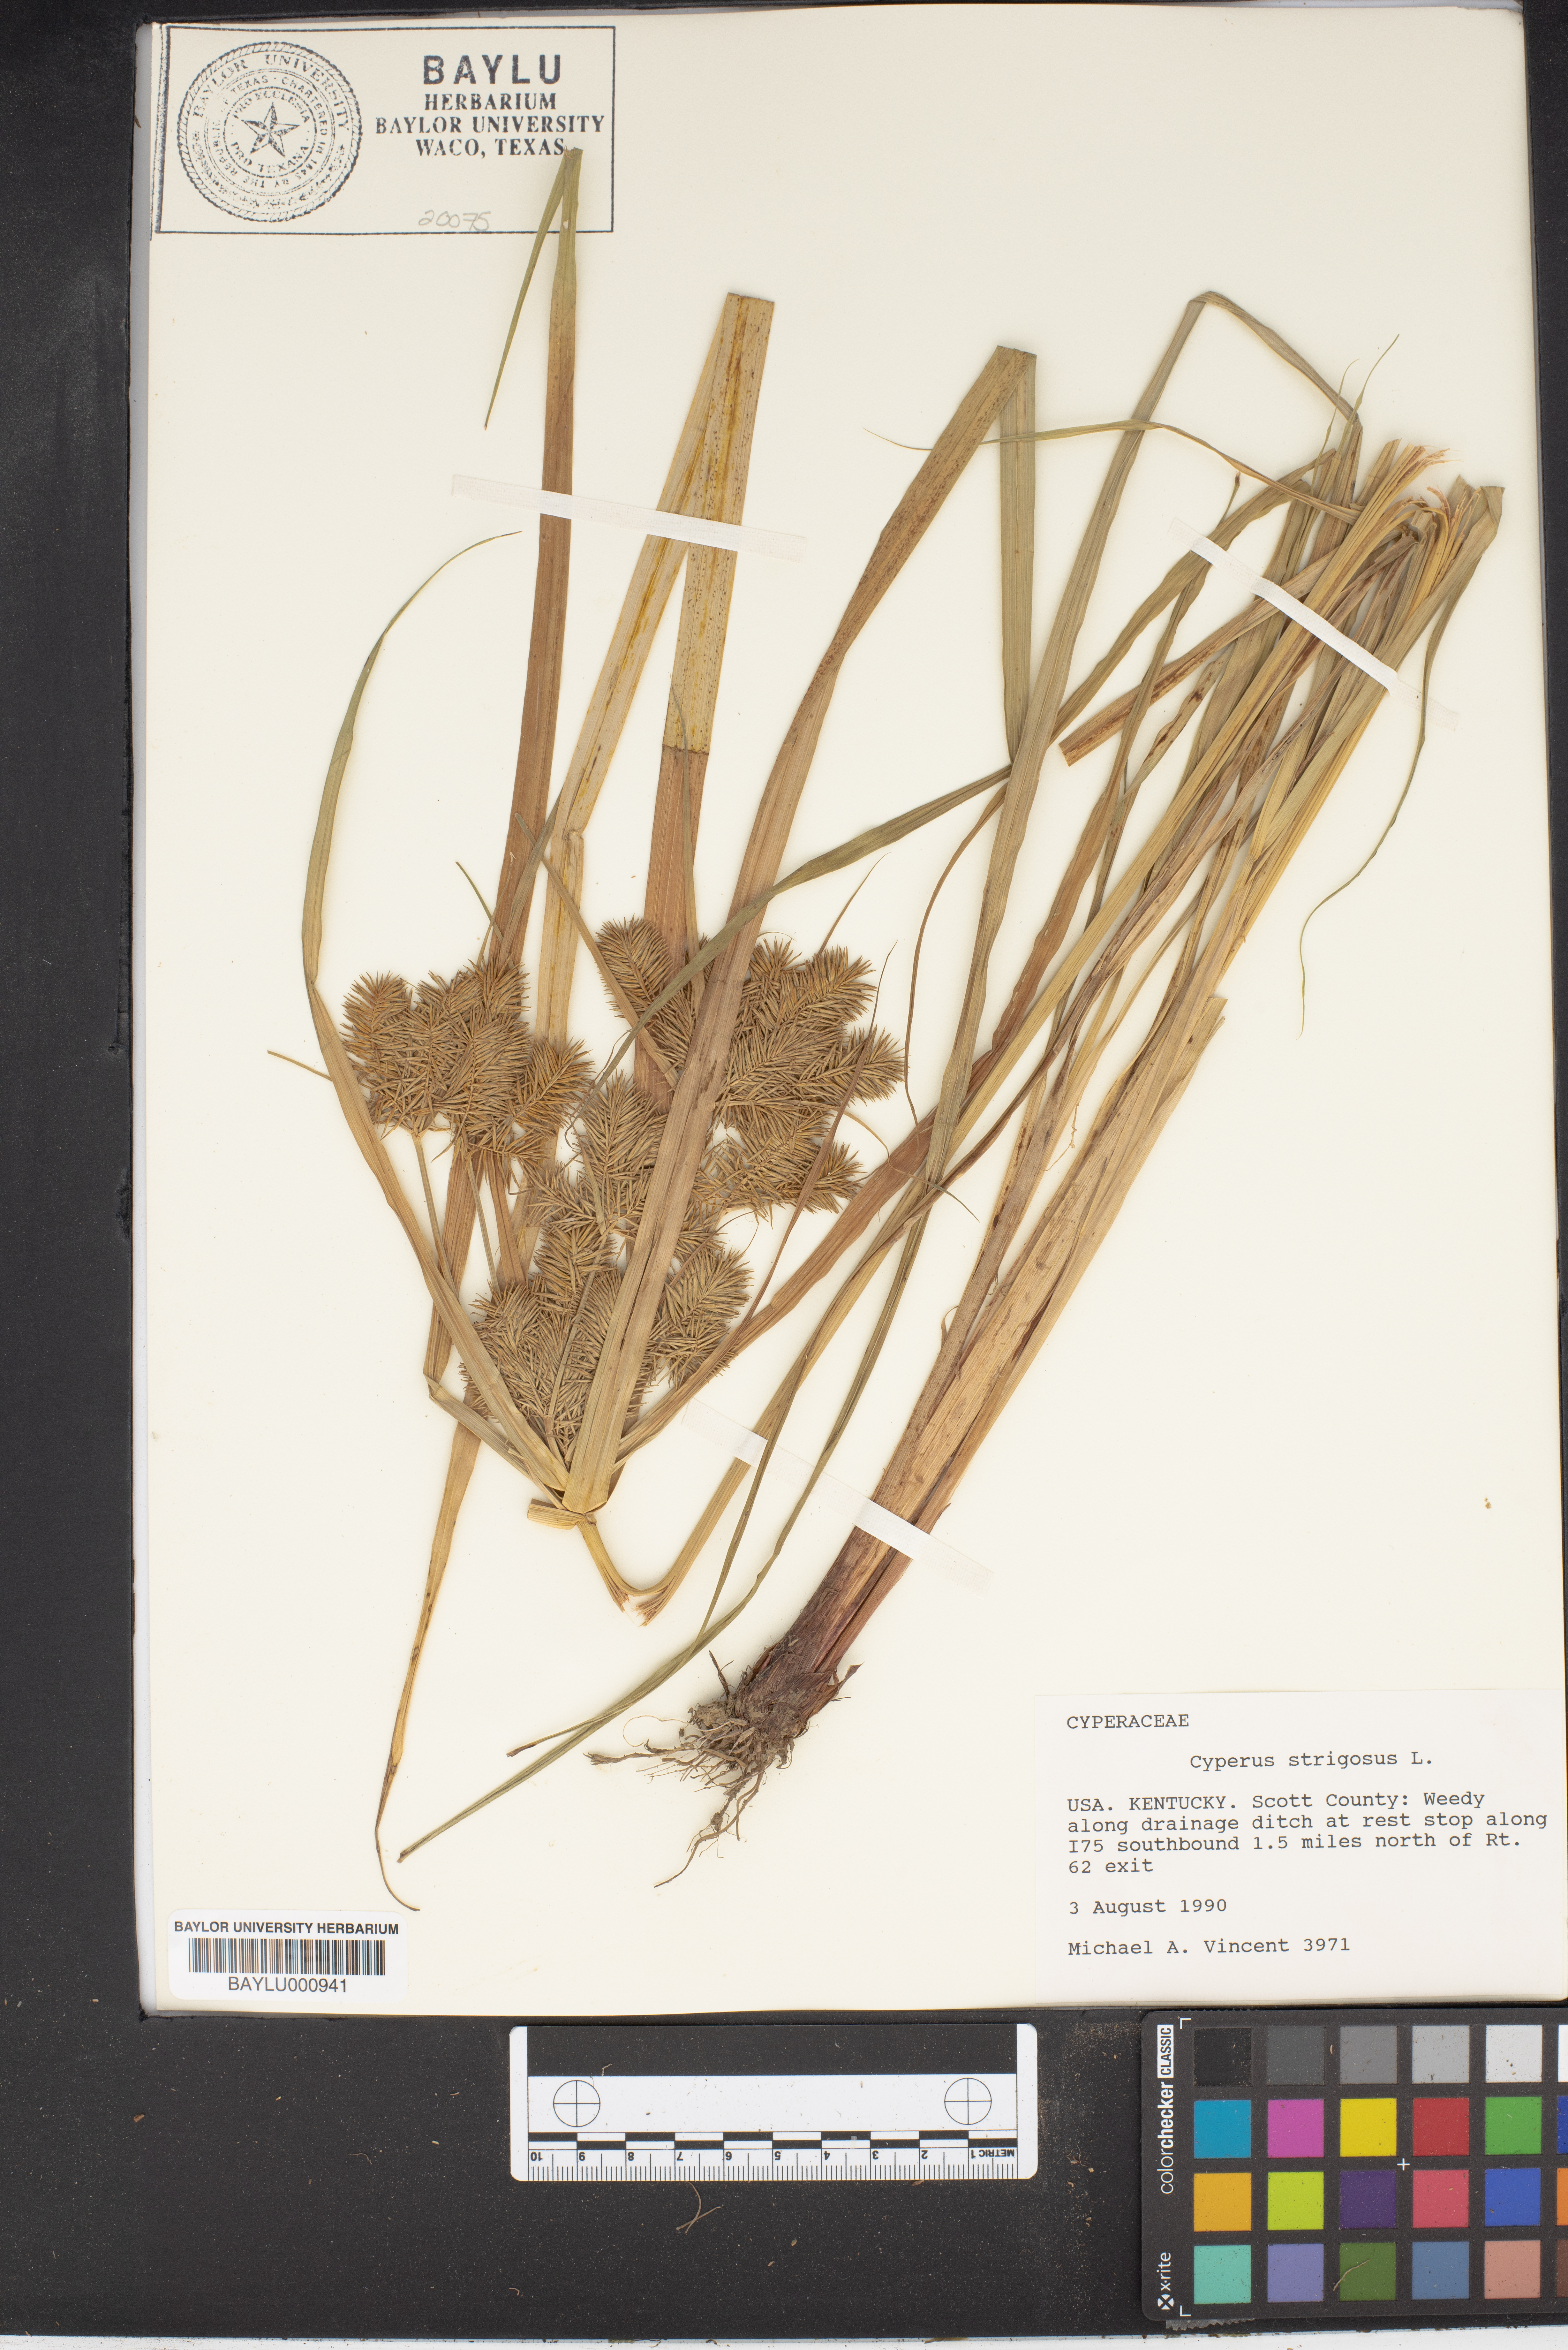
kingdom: Plantae
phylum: Tracheophyta
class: Liliopsida
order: Poales
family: Cyperaceae
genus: Cyperus
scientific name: Cyperus strigosus
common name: False nutsedge
